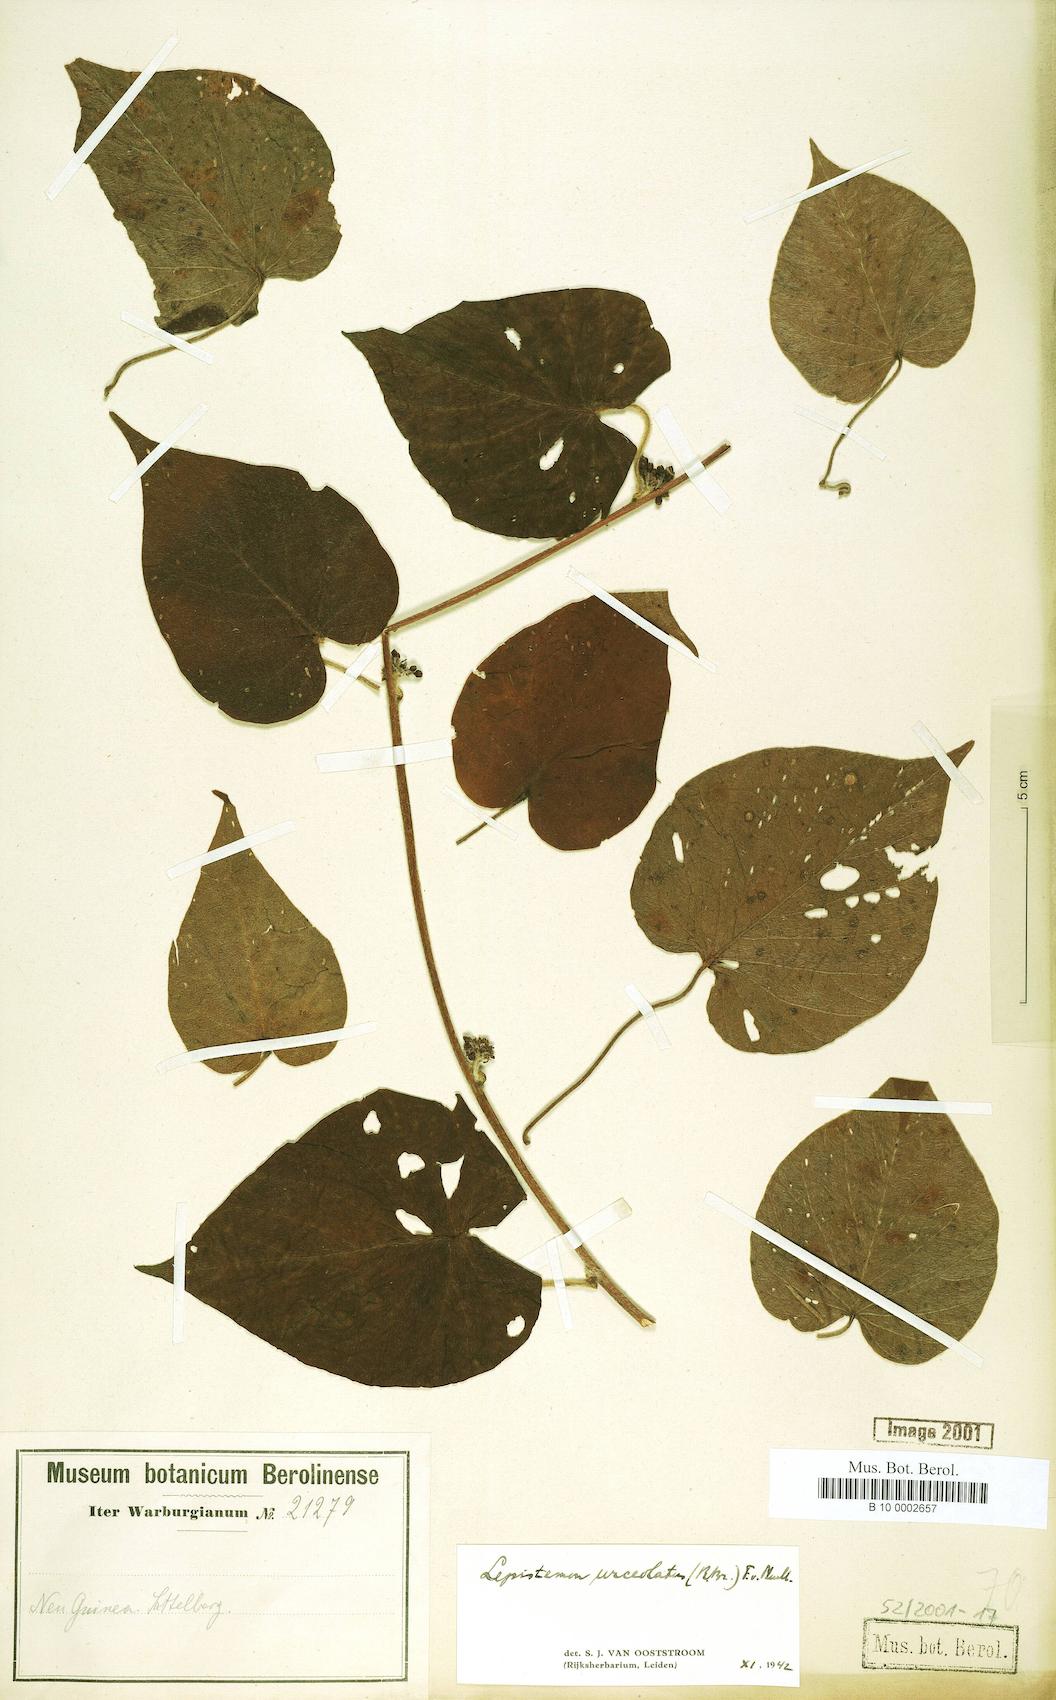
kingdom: Plantae
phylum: Tracheophyta
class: Magnoliopsida
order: Solanales
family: Convolvulaceae
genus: Lepistemon
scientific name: Lepistemon urceolatus
